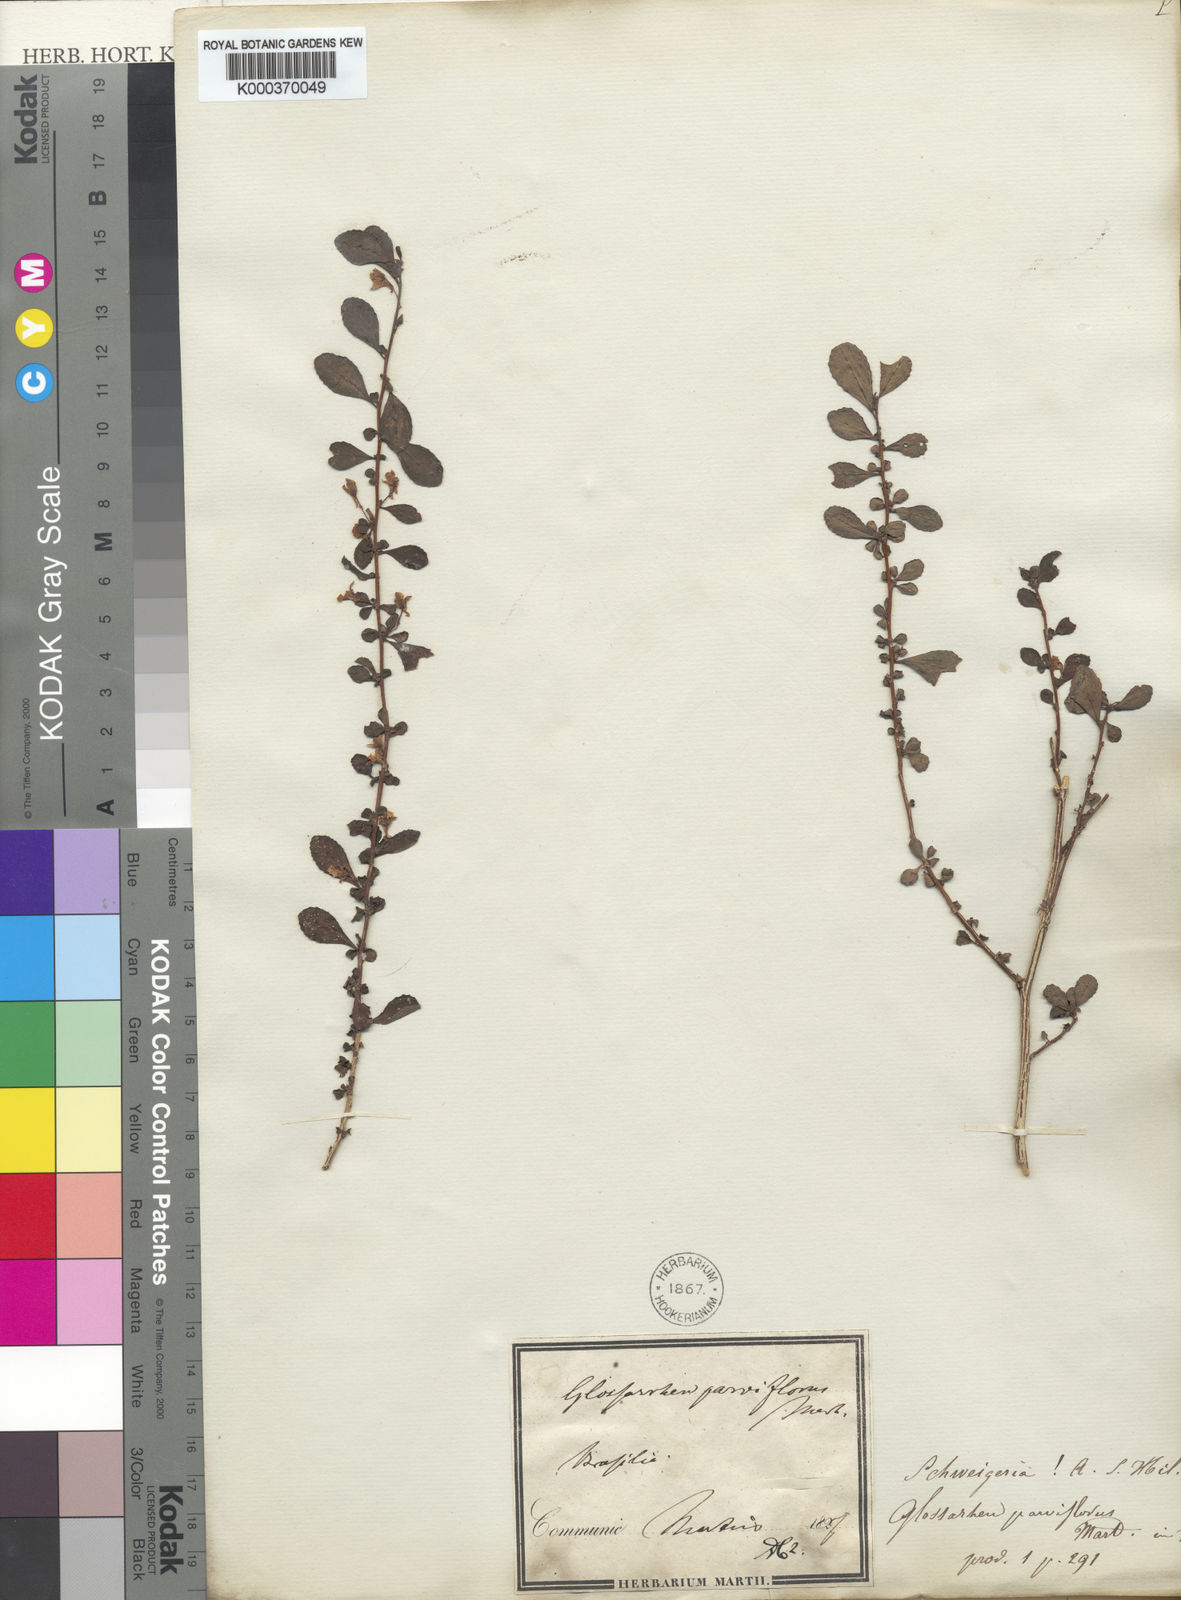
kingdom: Plantae
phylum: Tracheophyta
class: Magnoliopsida
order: Malpighiales
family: Violaceae
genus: Schweiggeria
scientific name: Schweiggeria
